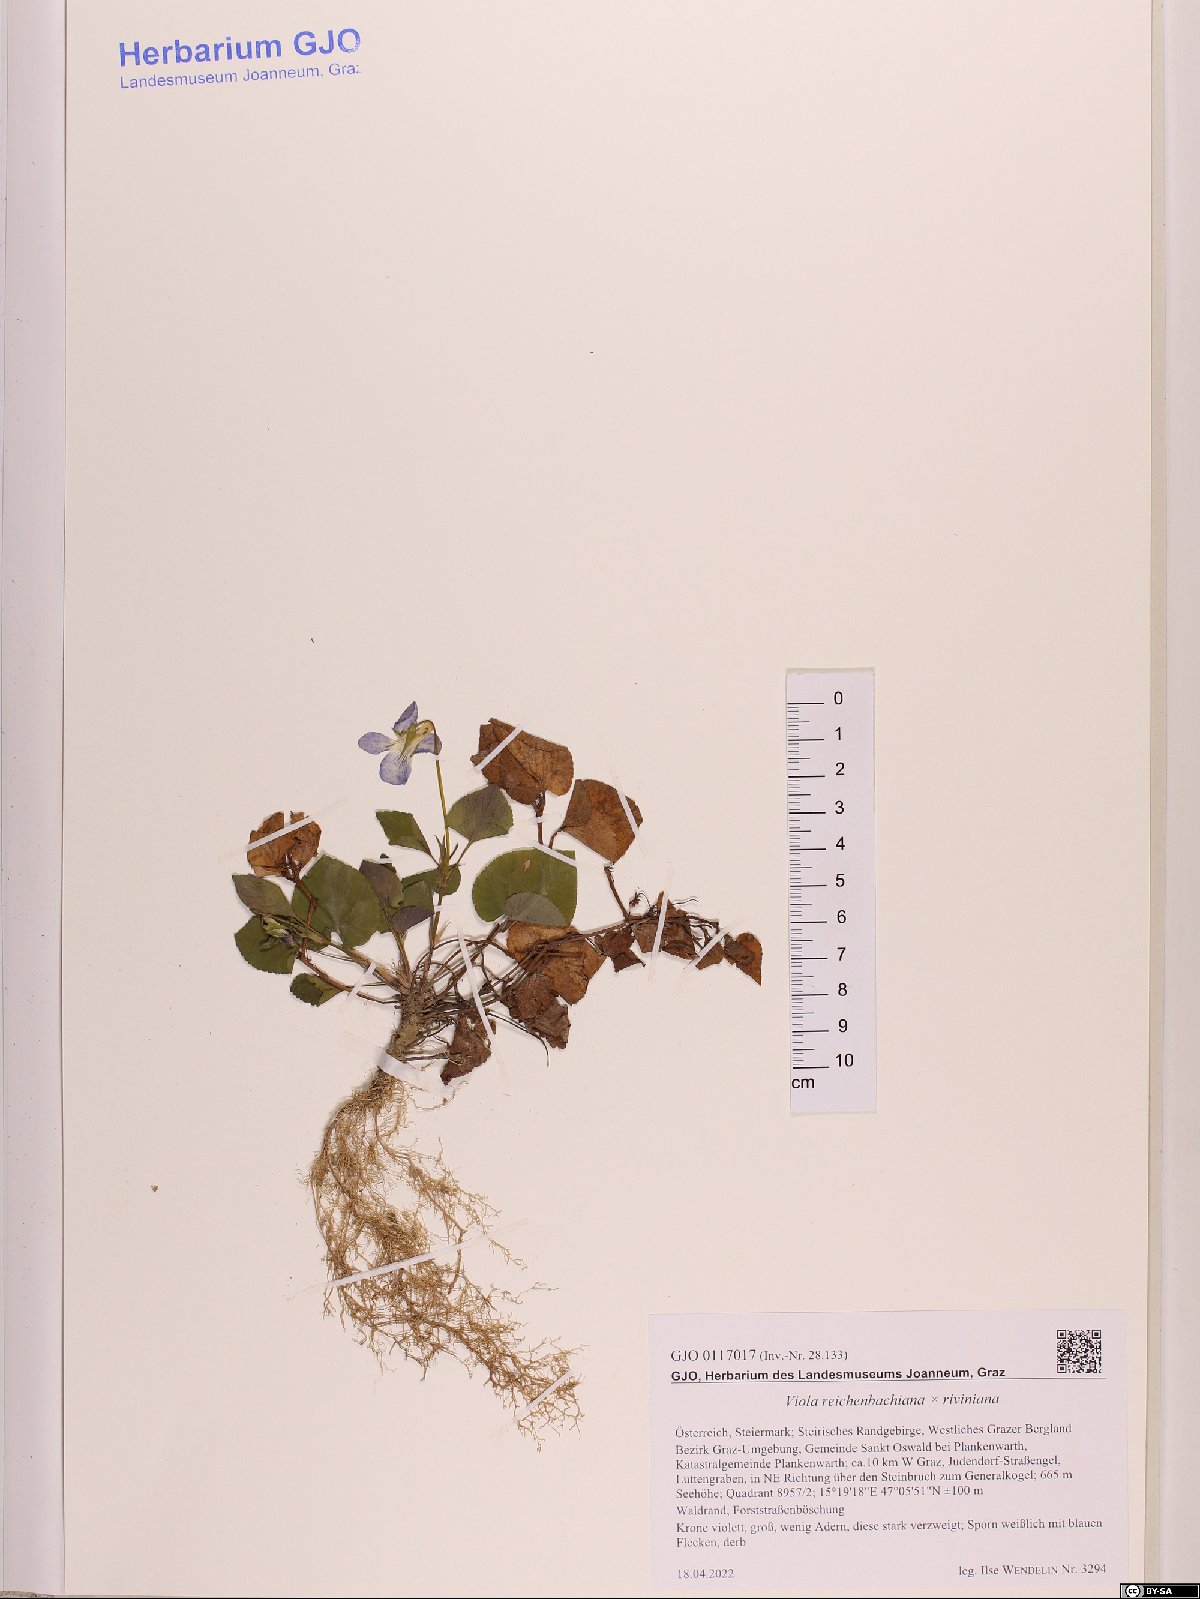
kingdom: Plantae
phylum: Tracheophyta
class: Magnoliopsida
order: Malpighiales
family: Violaceae
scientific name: Violaceae
